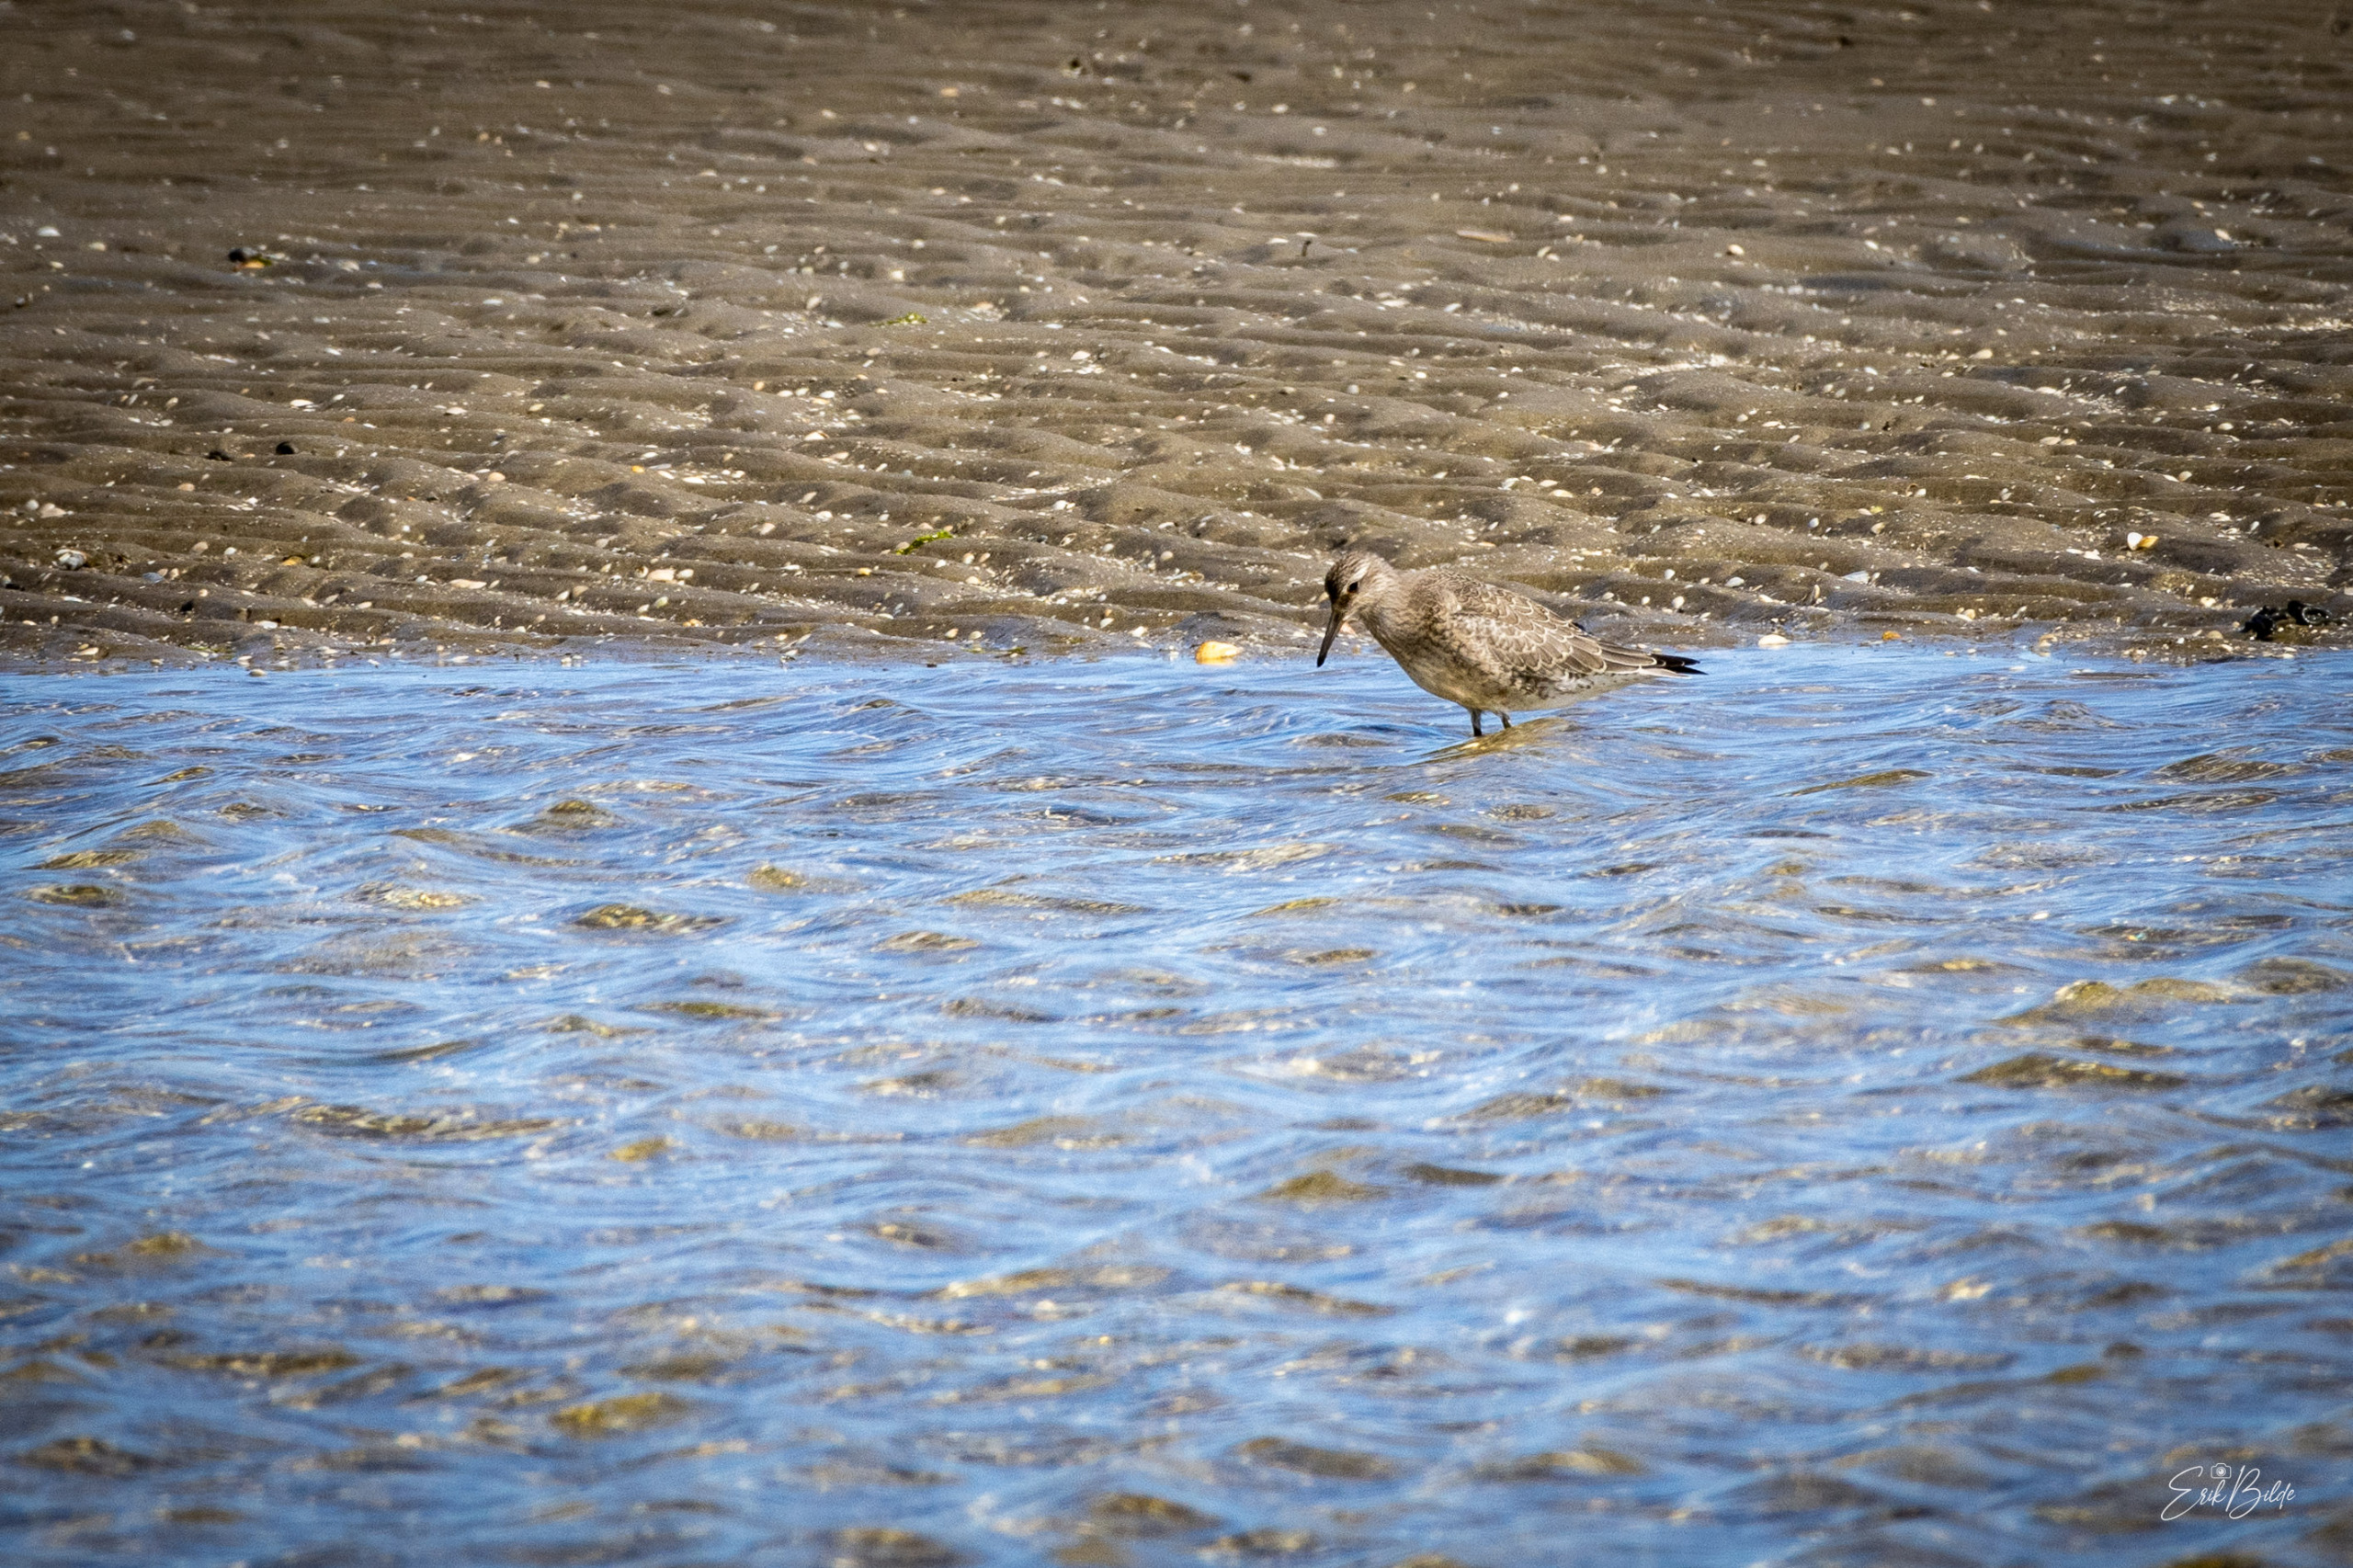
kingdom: Animalia
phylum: Chordata
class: Aves
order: Charadriiformes
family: Scolopacidae
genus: Calidris
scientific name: Calidris canutus
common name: Islandsk ryle
